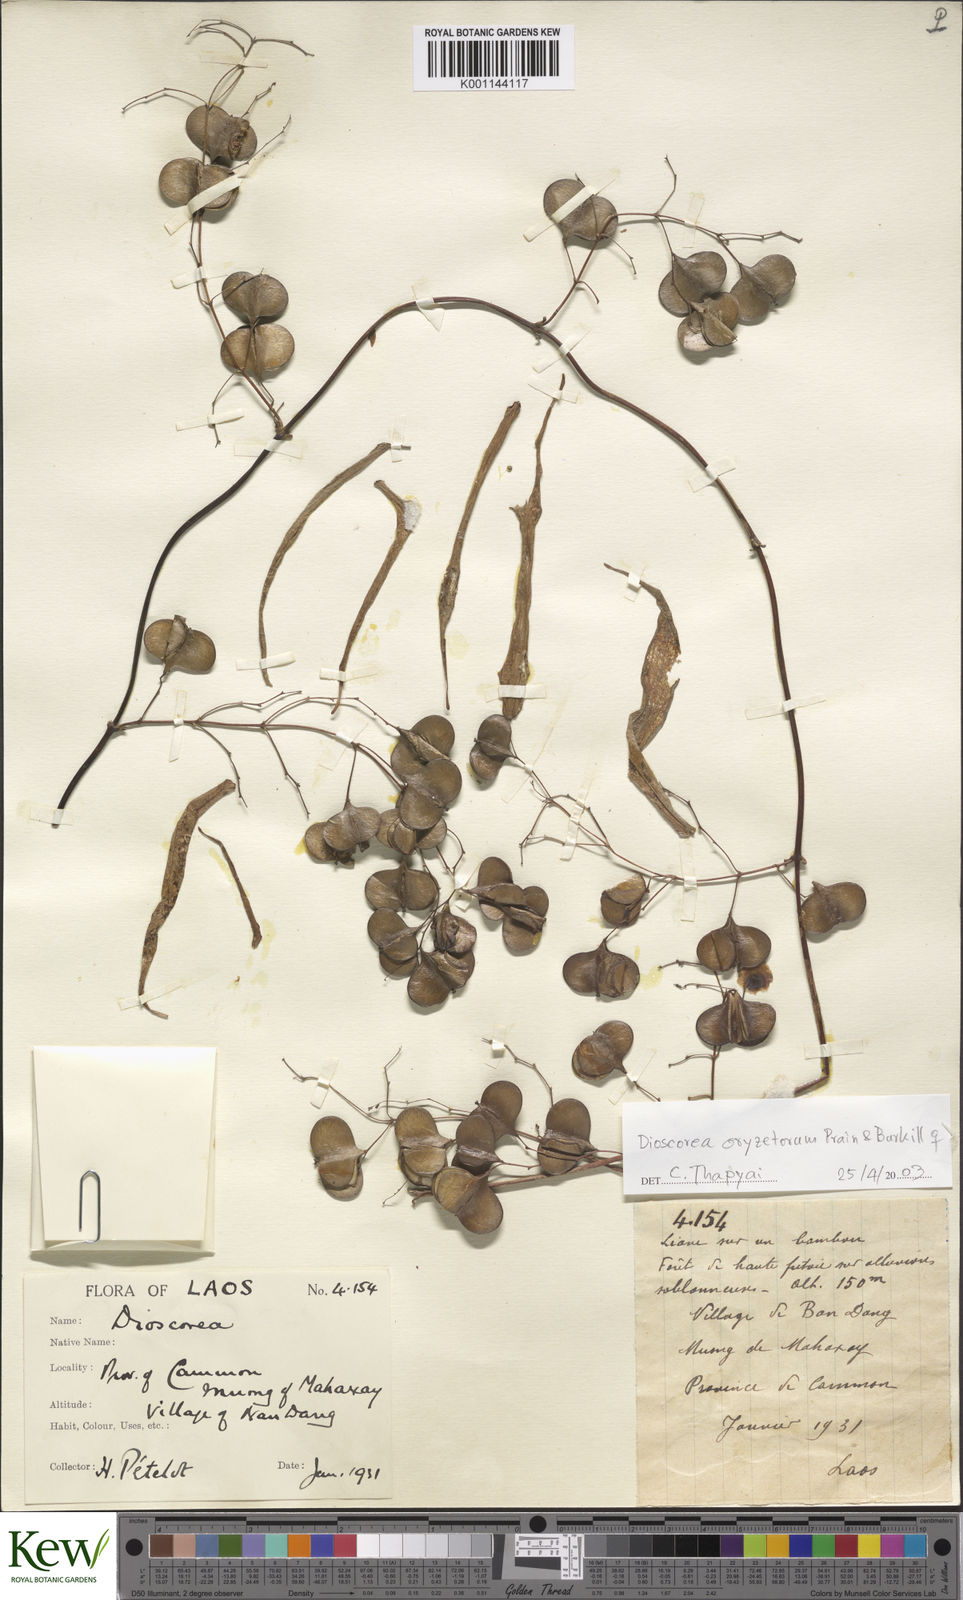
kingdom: Plantae
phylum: Tracheophyta
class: Liliopsida
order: Dioscoreales
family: Dioscoreaceae
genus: Dioscorea
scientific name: Dioscorea oryzetorum
